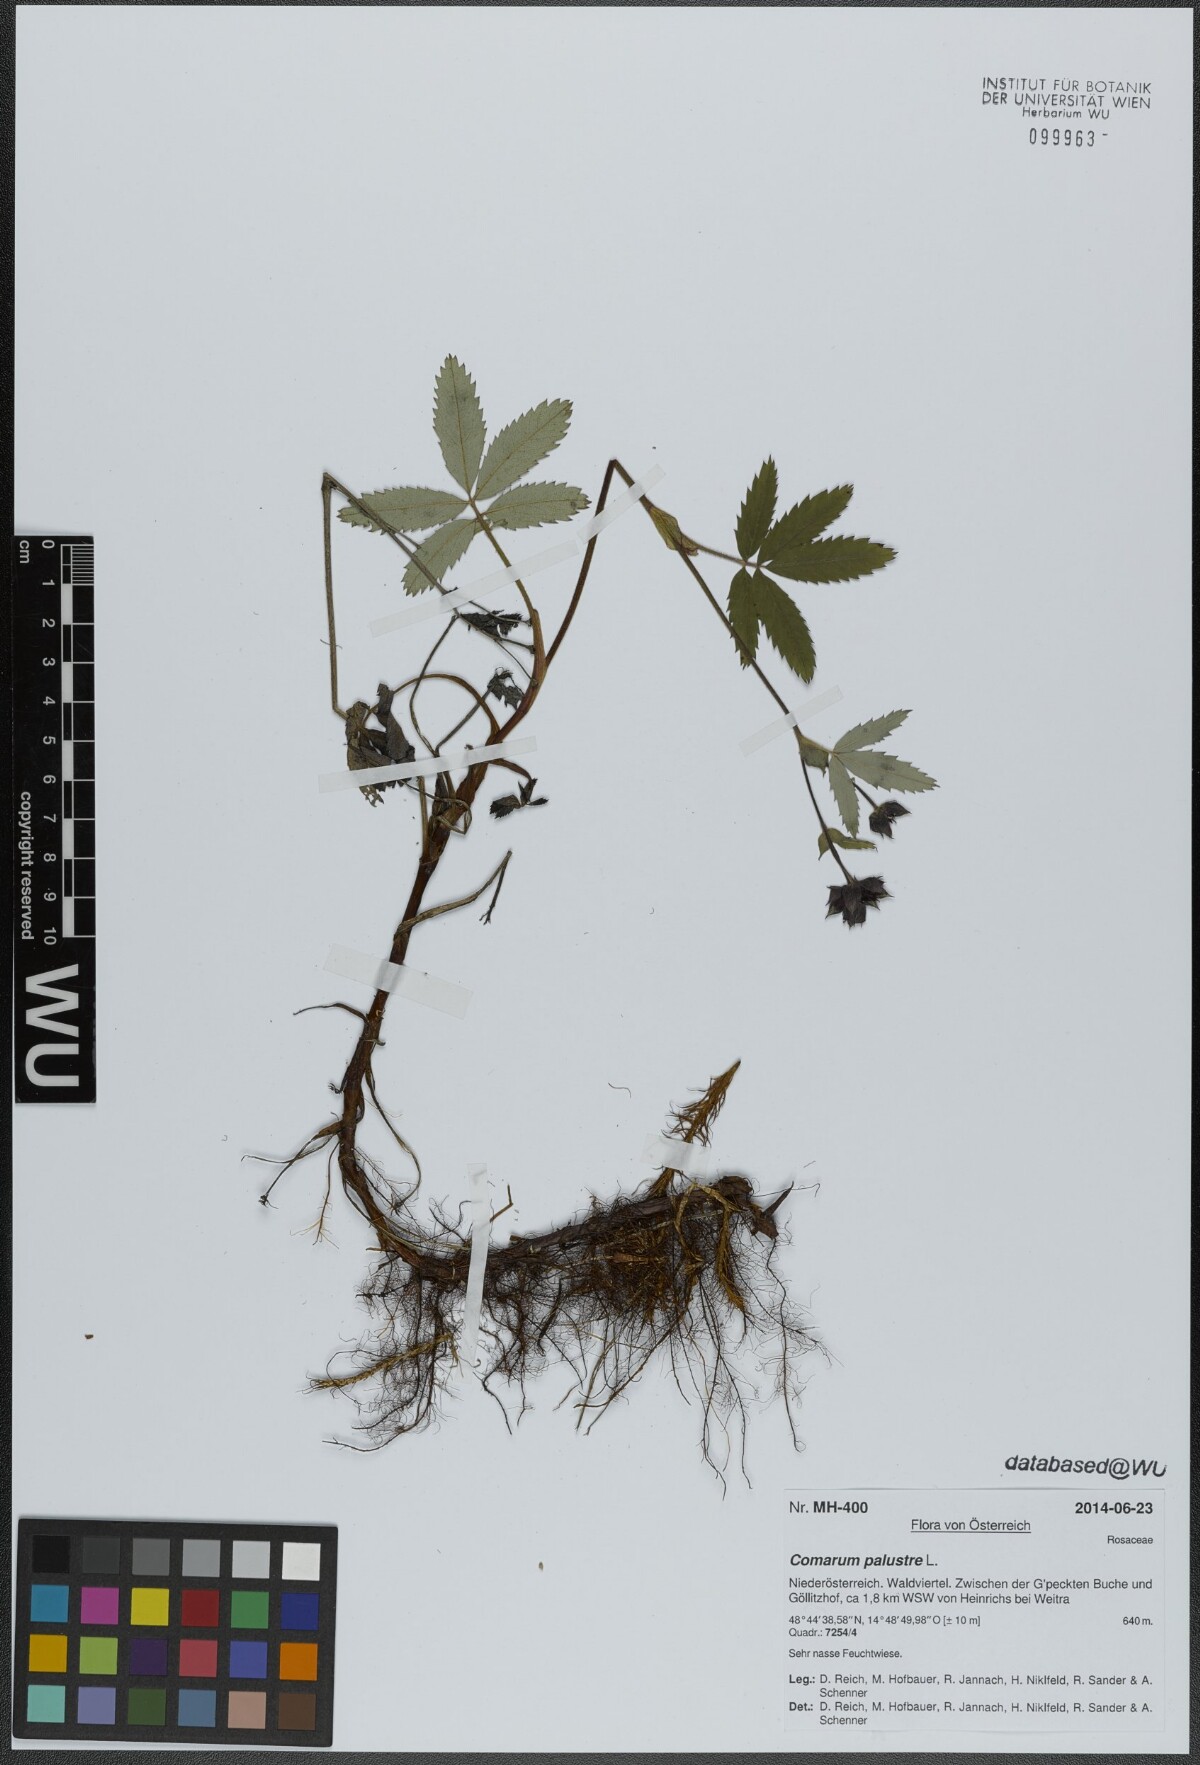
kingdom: Plantae
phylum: Tracheophyta
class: Magnoliopsida
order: Rosales
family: Rosaceae
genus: Comarum
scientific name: Comarum palustre
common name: Marsh cinquefoil
